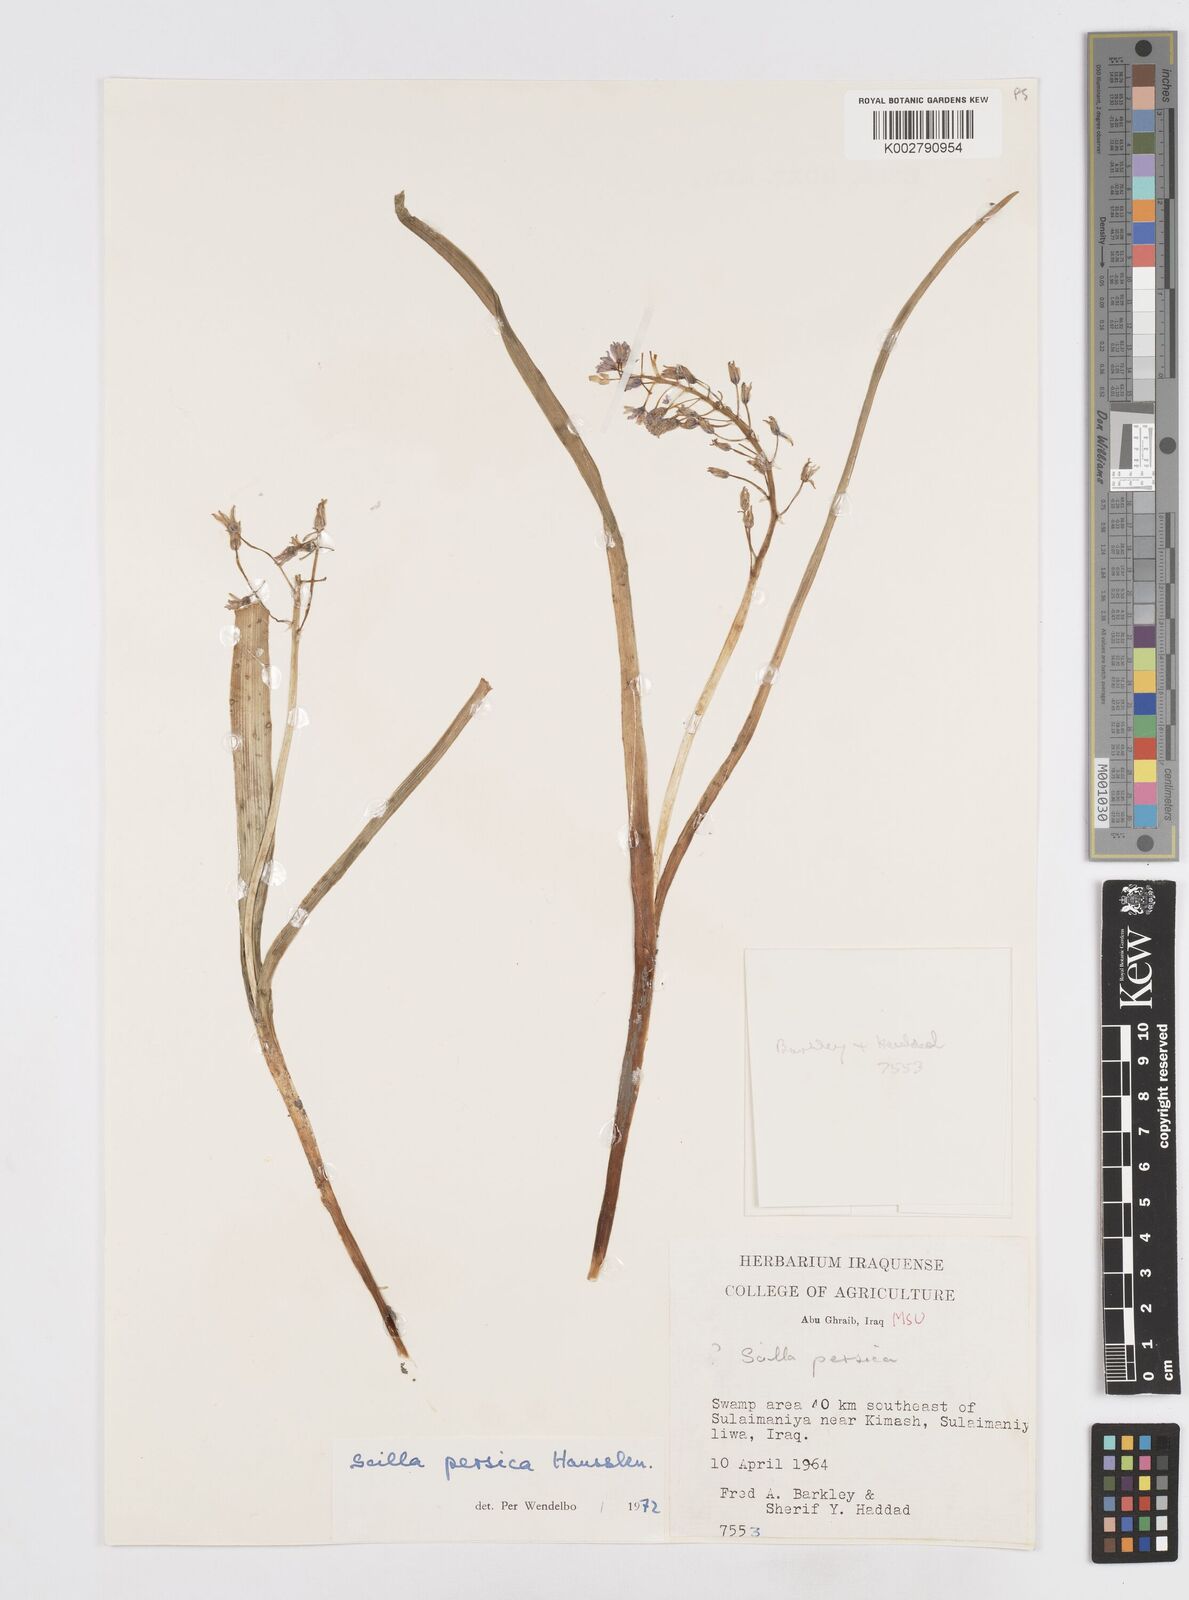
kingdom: Plantae
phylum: Tracheophyta
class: Liliopsida
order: Asparagales
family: Asparagaceae
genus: Zagrosia
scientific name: Zagrosia persica
